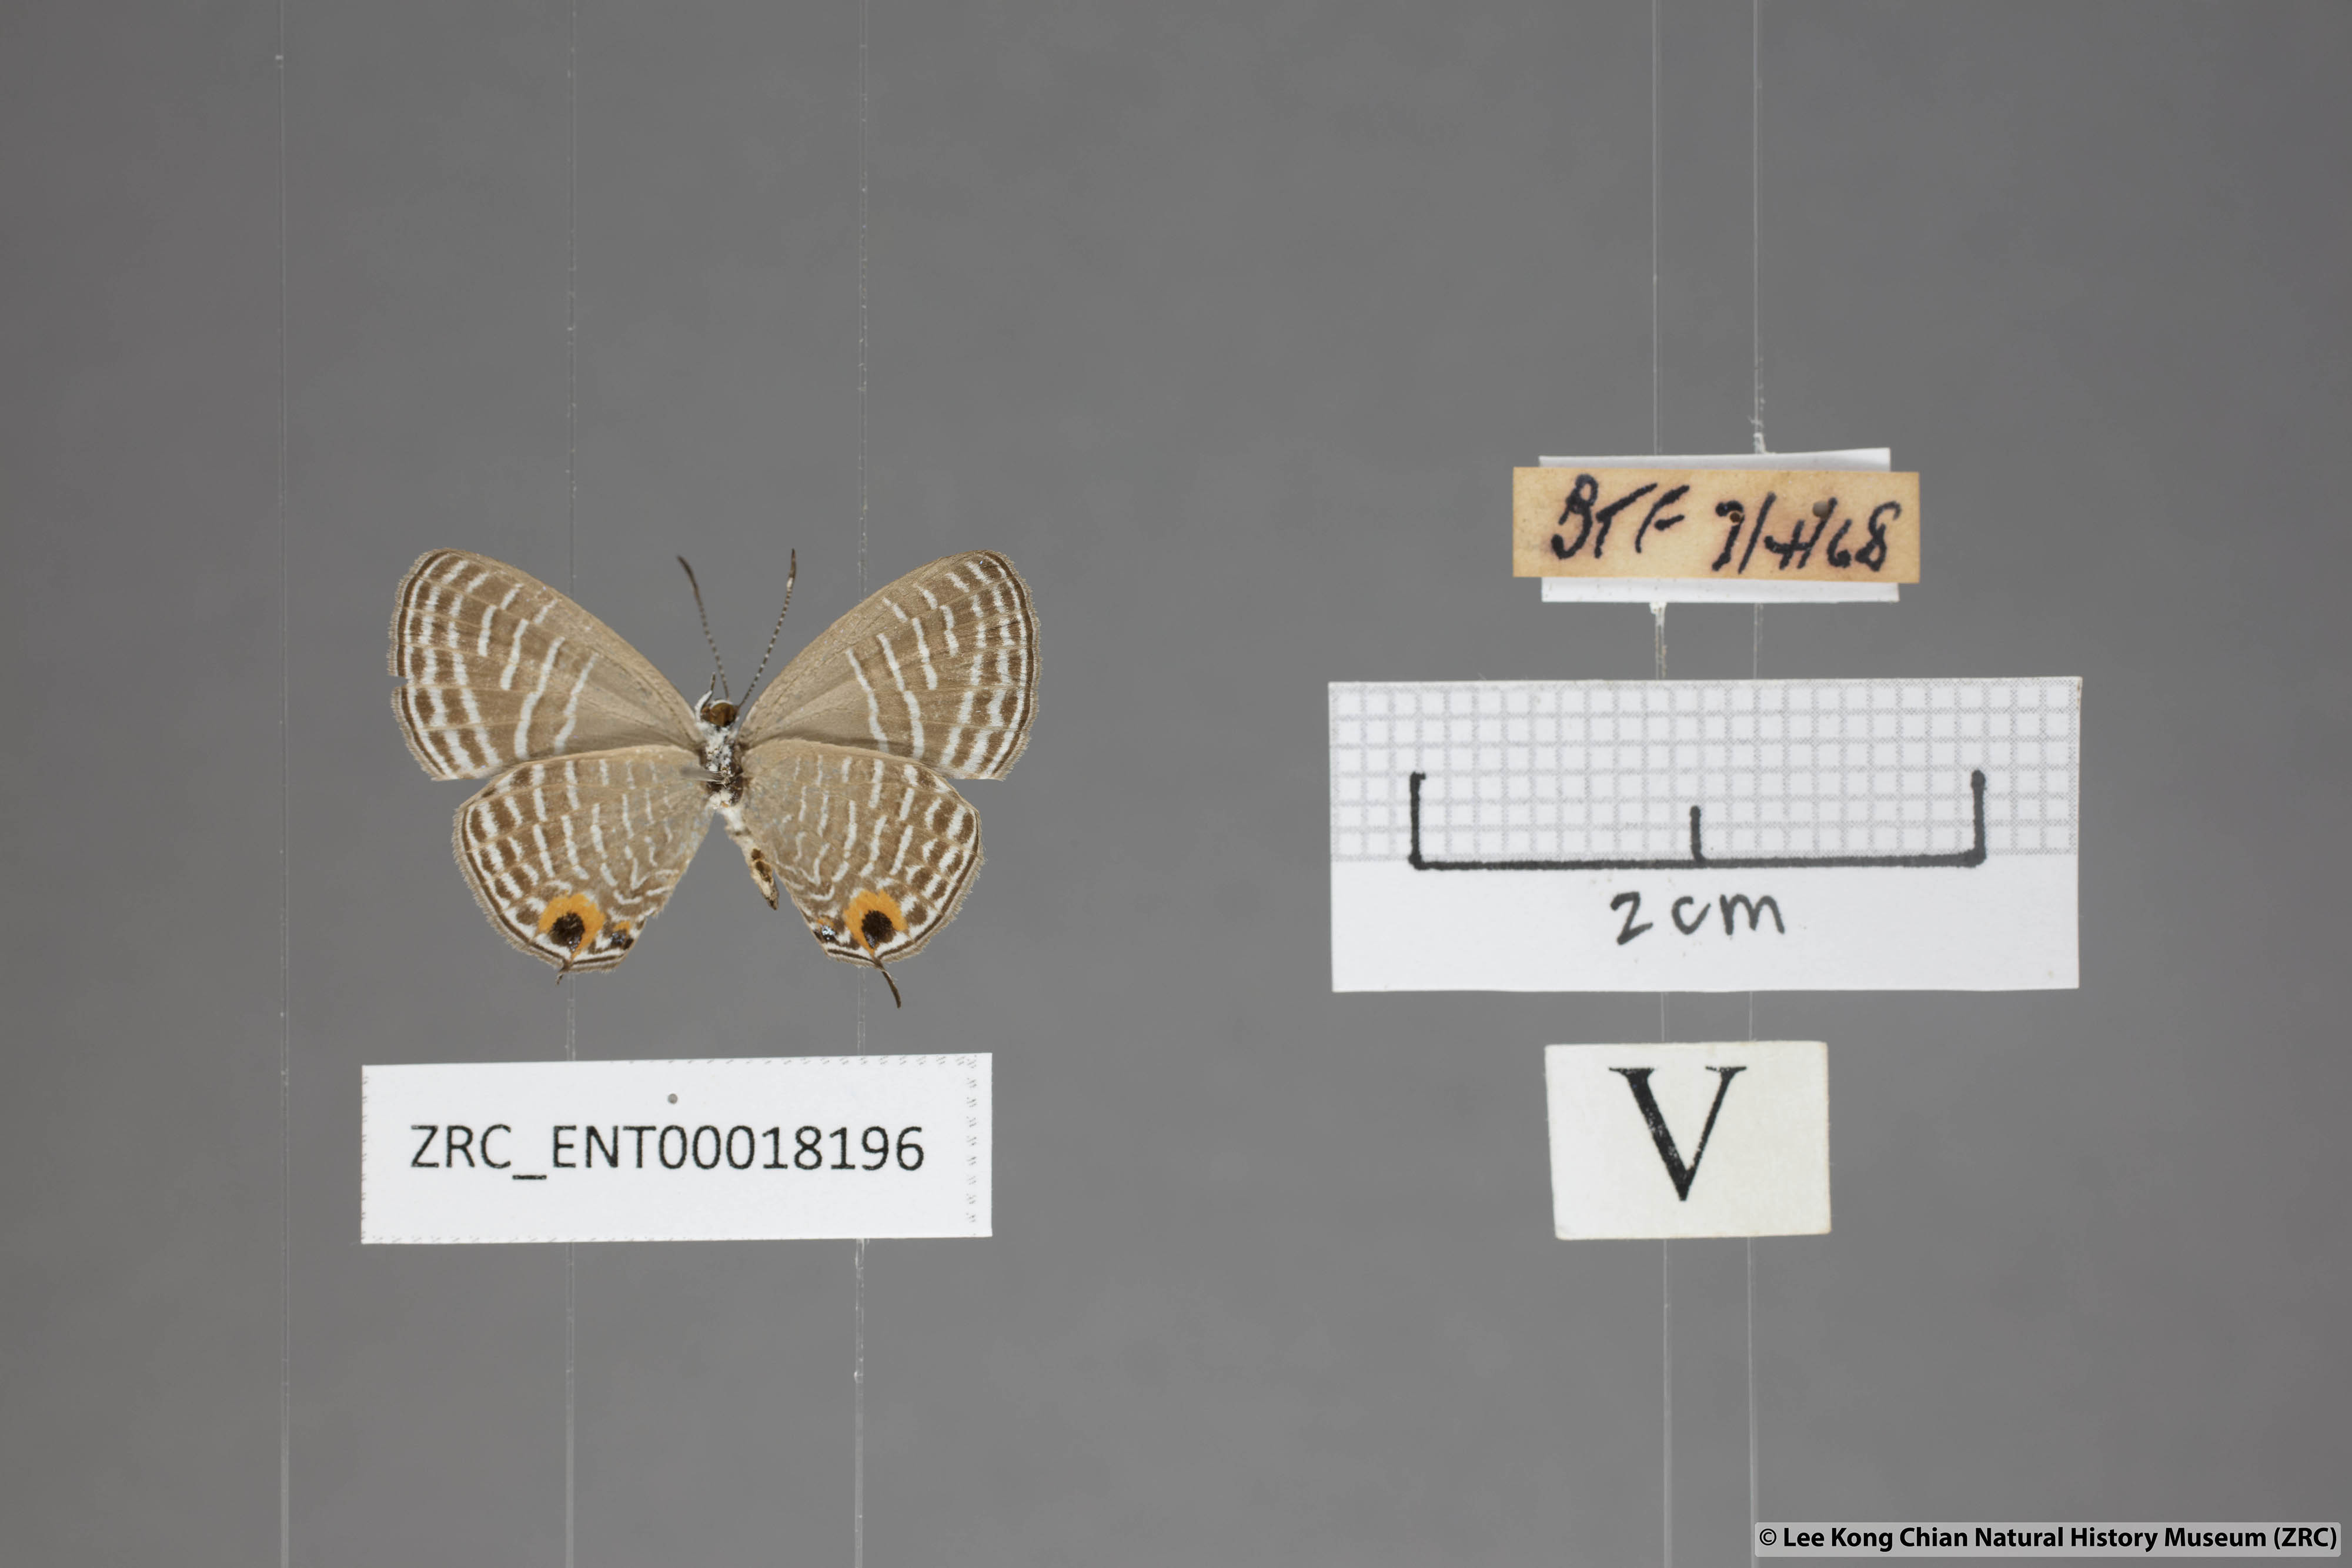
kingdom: Animalia
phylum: Arthropoda
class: Insecta
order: Lepidoptera
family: Lycaenidae
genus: Jamides
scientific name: Jamides talinga
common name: Lesser cerulean
